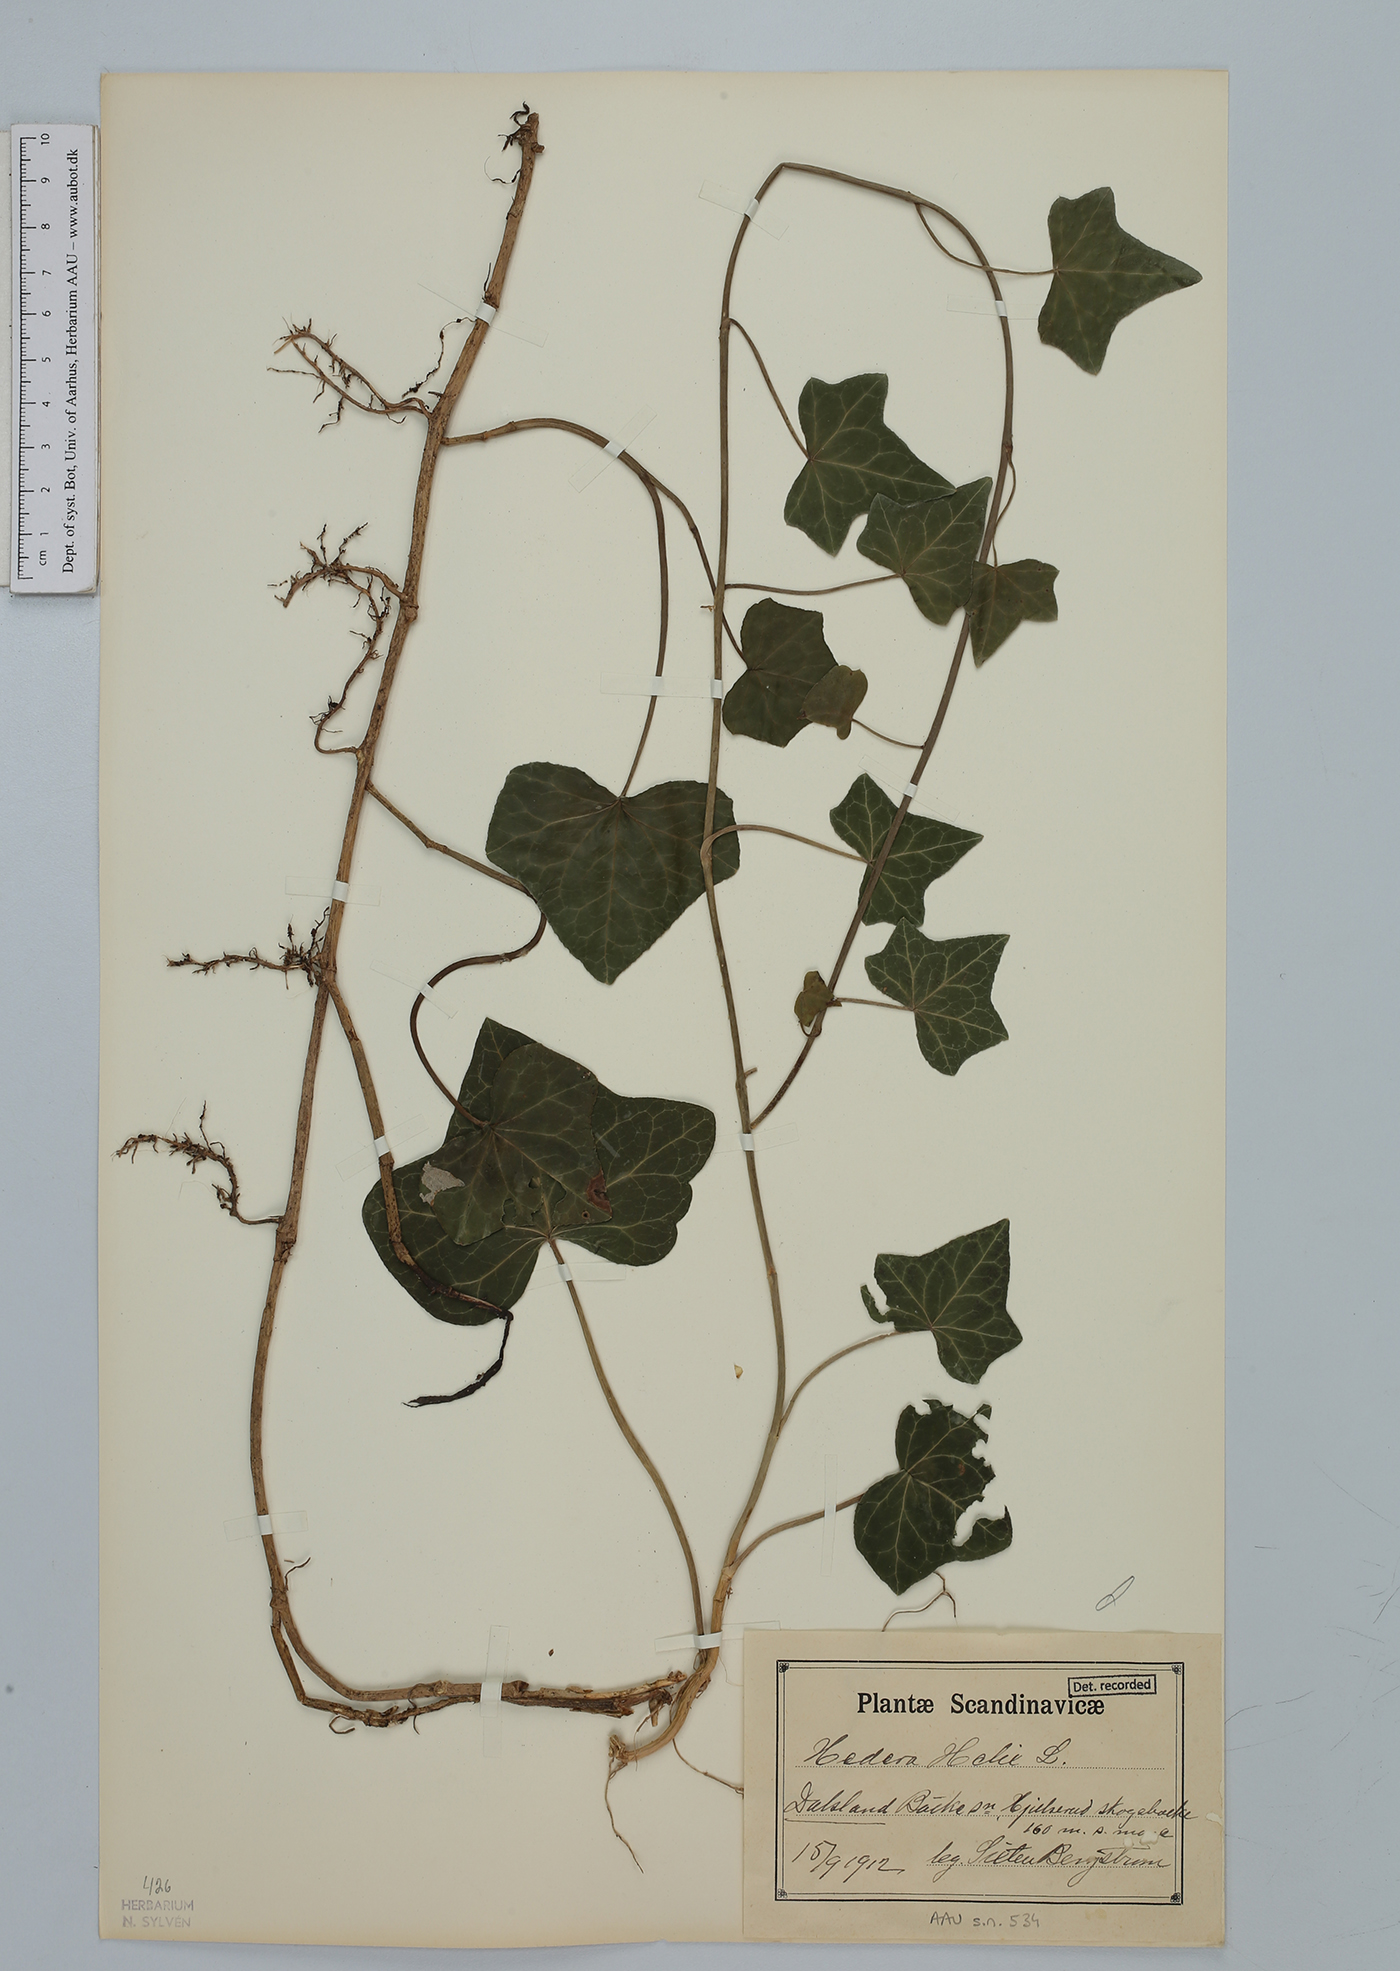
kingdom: Plantae
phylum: Tracheophyta
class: Magnoliopsida
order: Apiales
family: Araliaceae
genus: Hedera
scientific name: Hedera helix
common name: Ivy
